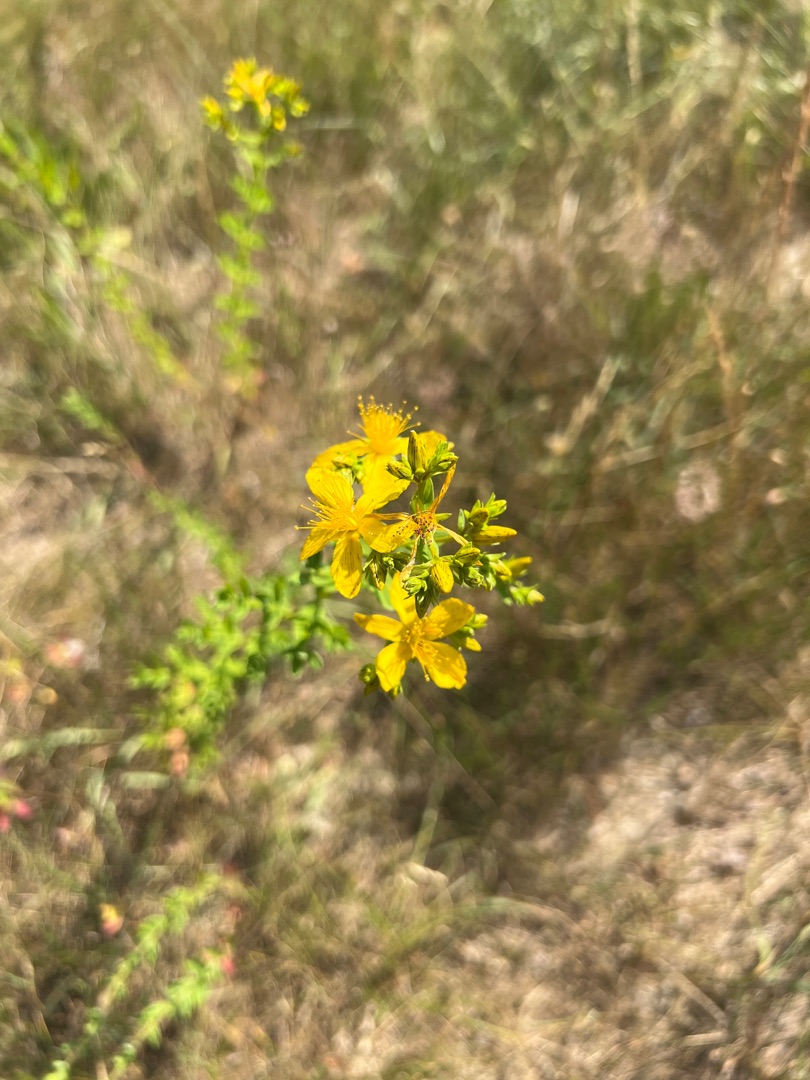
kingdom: Plantae
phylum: Tracheophyta
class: Magnoliopsida
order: Malpighiales
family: Hypericaceae
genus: Hypericum
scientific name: Hypericum perforatum
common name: Prikbladet perikon
